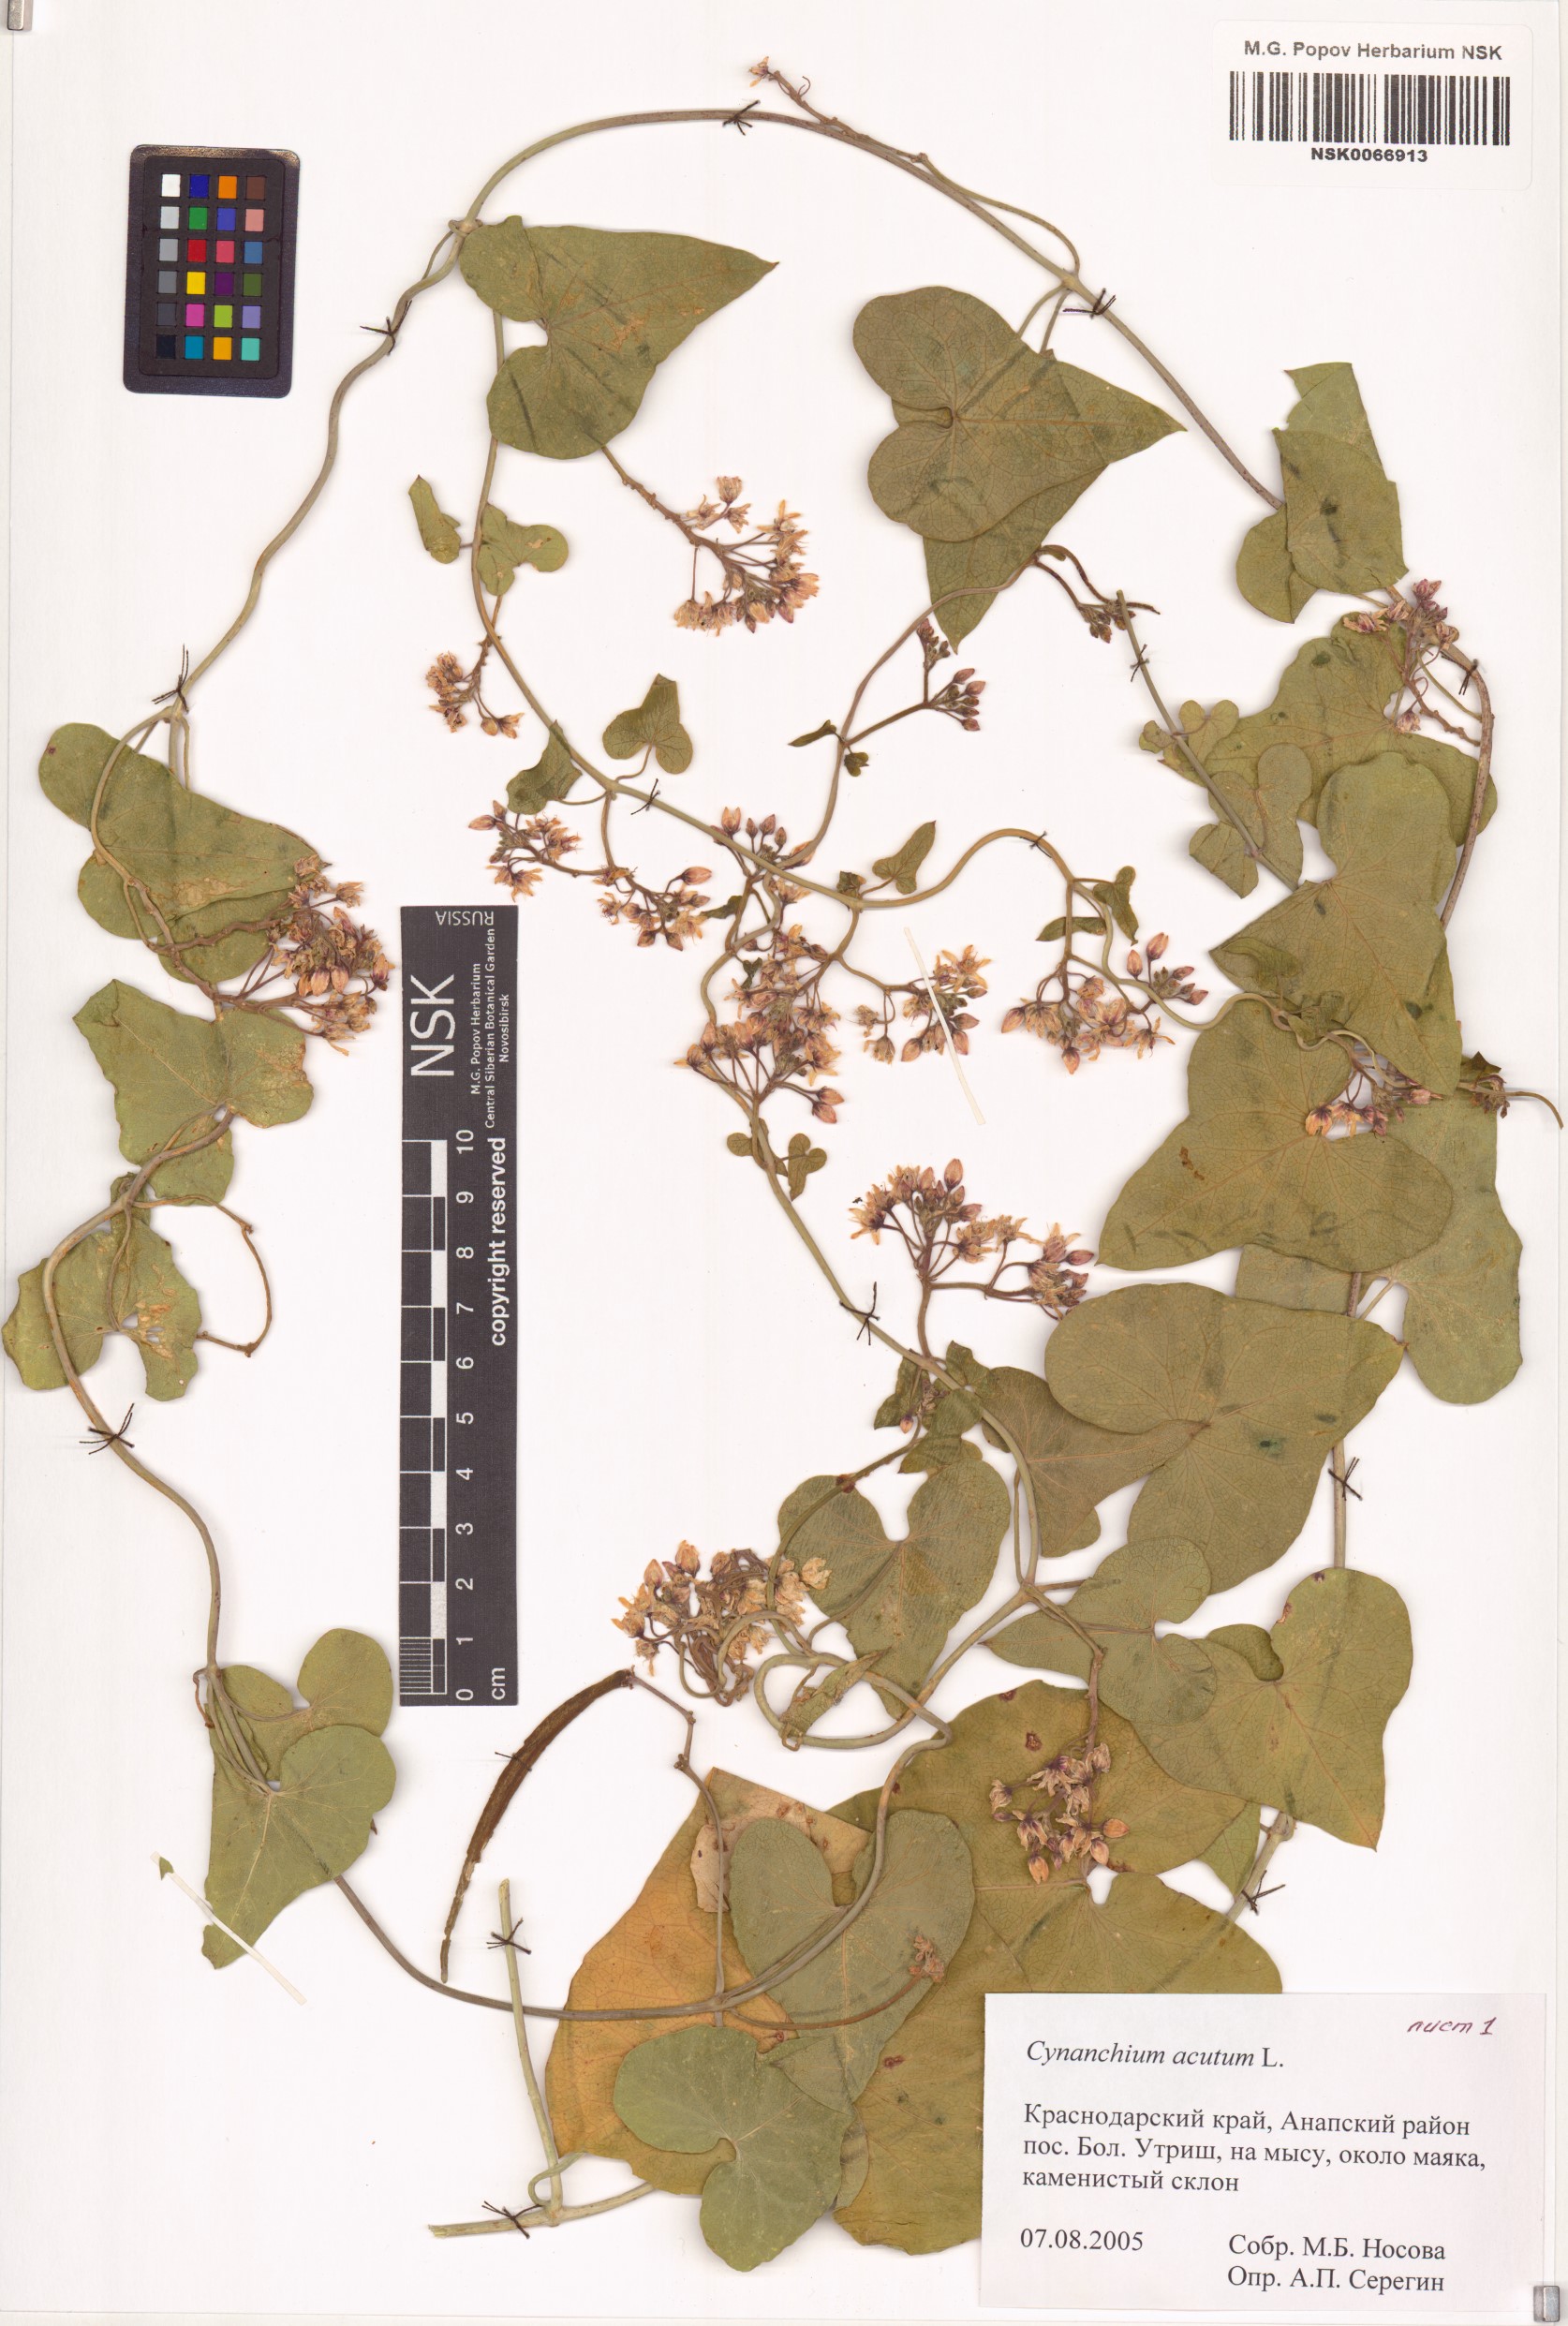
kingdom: Plantae
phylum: Tracheophyta
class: Magnoliopsida
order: Gentianales
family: Apocynaceae
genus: Cynanchum
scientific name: Cynanchum acutum
